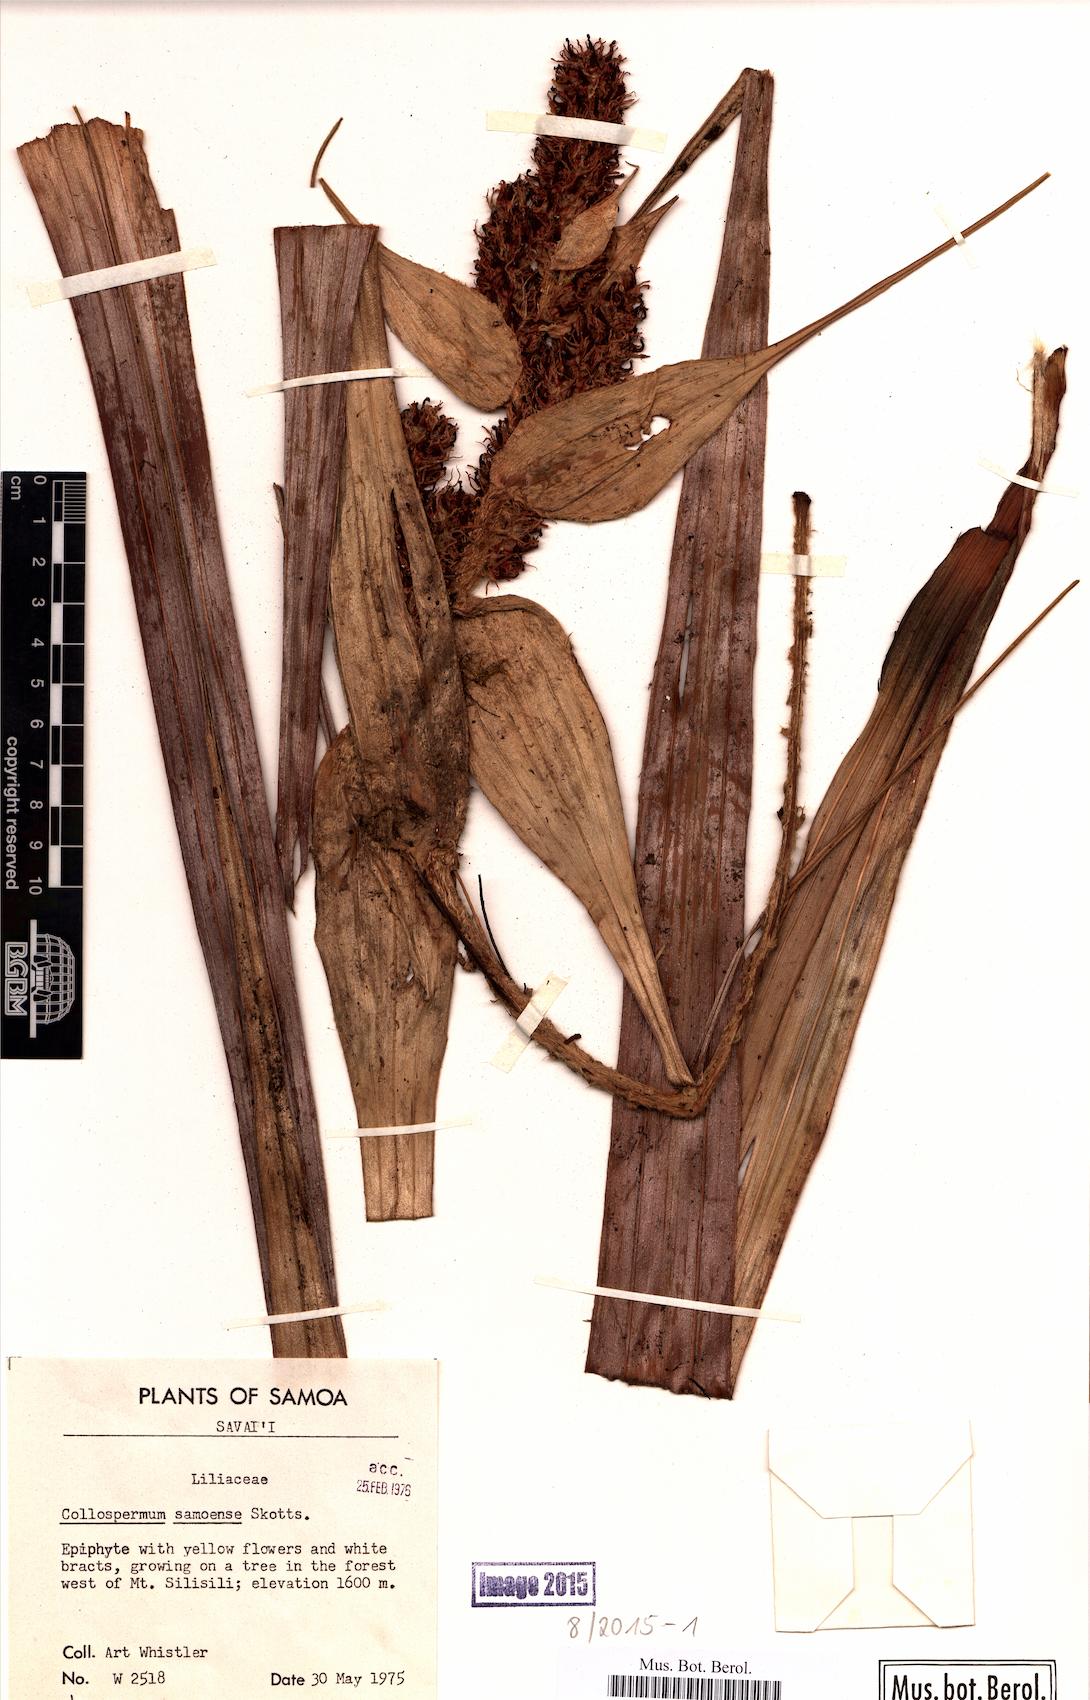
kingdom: Plantae
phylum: Tracheophyta
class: Liliopsida
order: Asparagales
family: Asteliaceae
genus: Astelia
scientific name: Astelia samoense
